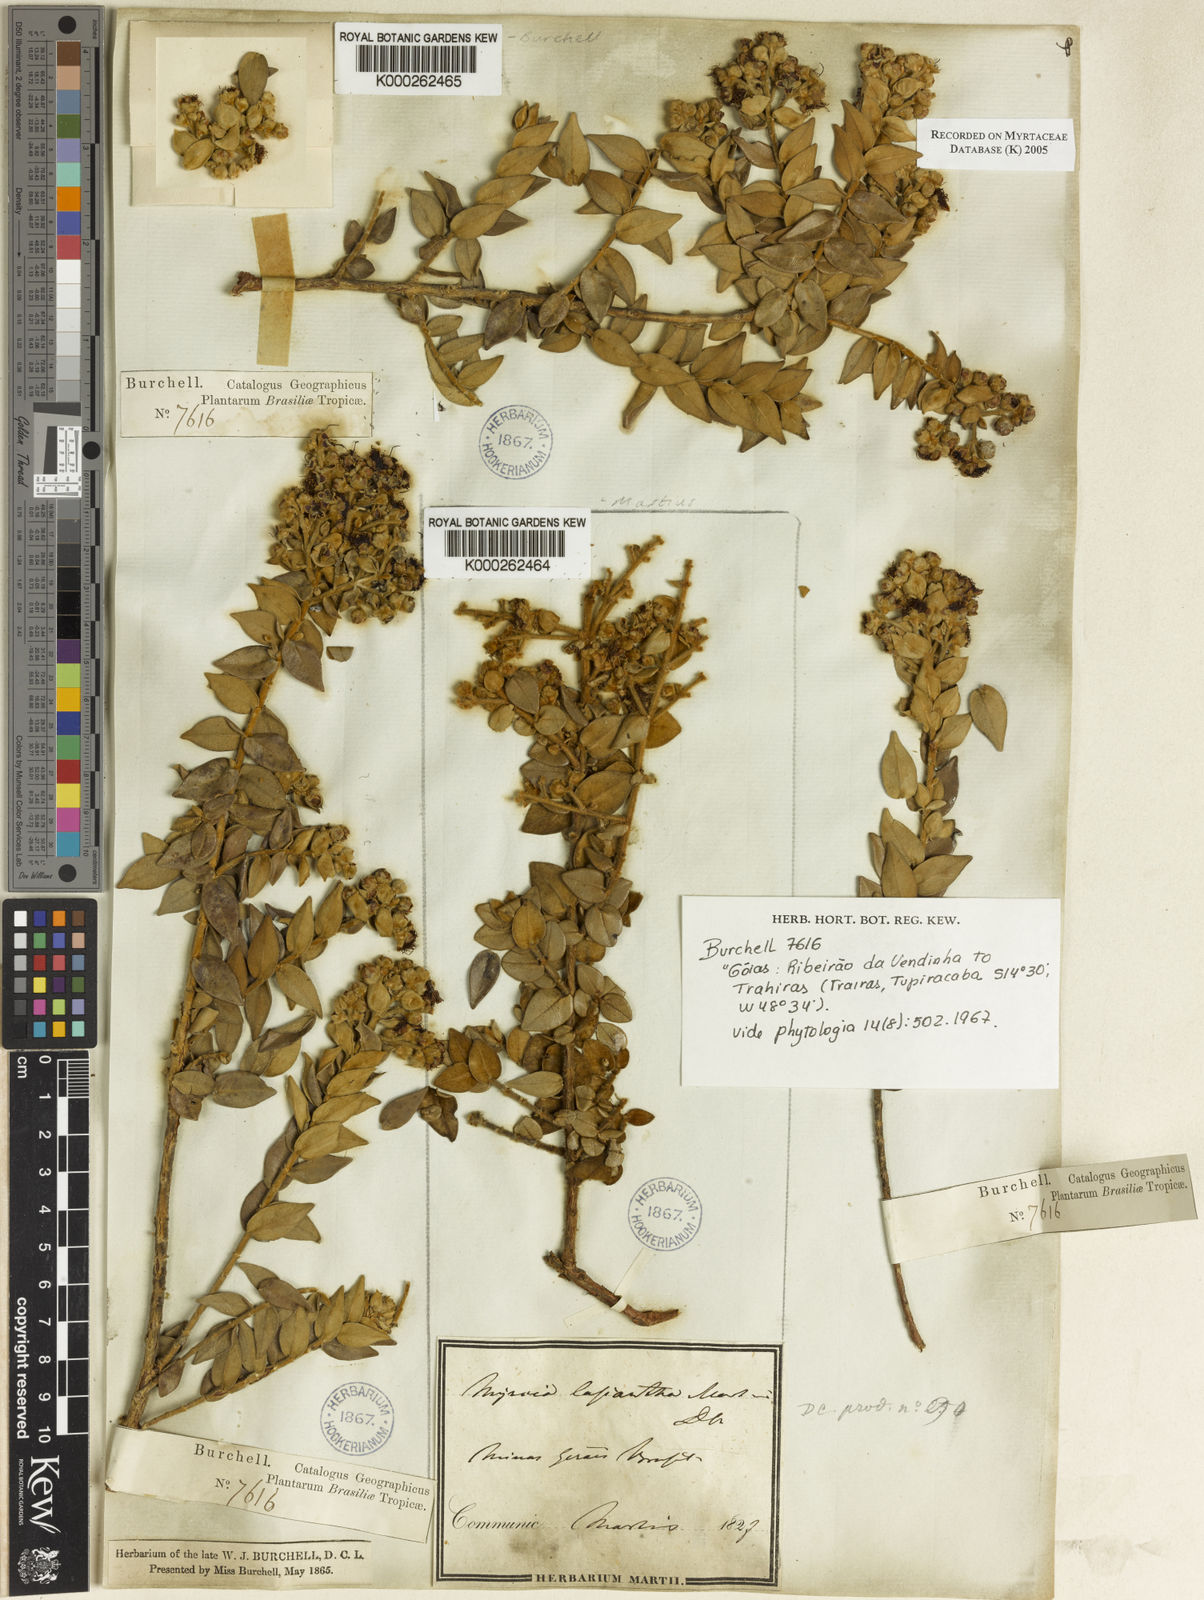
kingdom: Plantae
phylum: Tracheophyta
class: Magnoliopsida
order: Myrtales
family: Myrtaceae
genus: Myrcia
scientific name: Myrcia lasiantha
